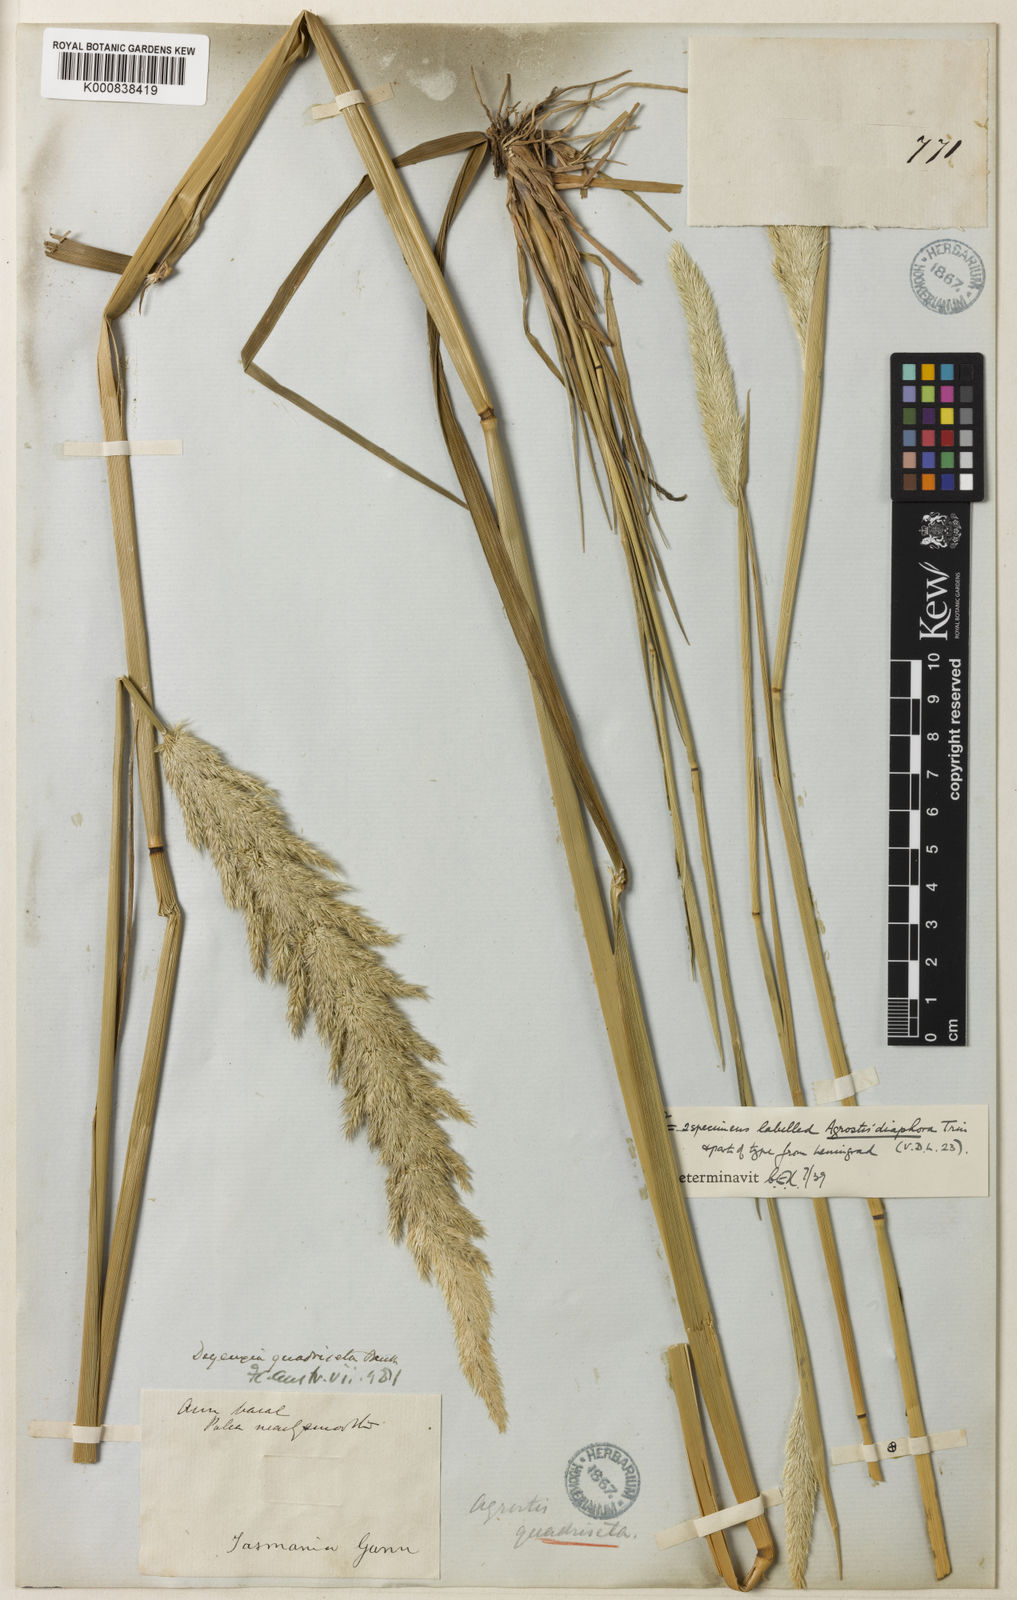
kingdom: Plantae
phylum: Tracheophyta
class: Liliopsida
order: Poales
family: Poaceae
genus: Calamagrostis
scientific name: Calamagrostis quadriseta
